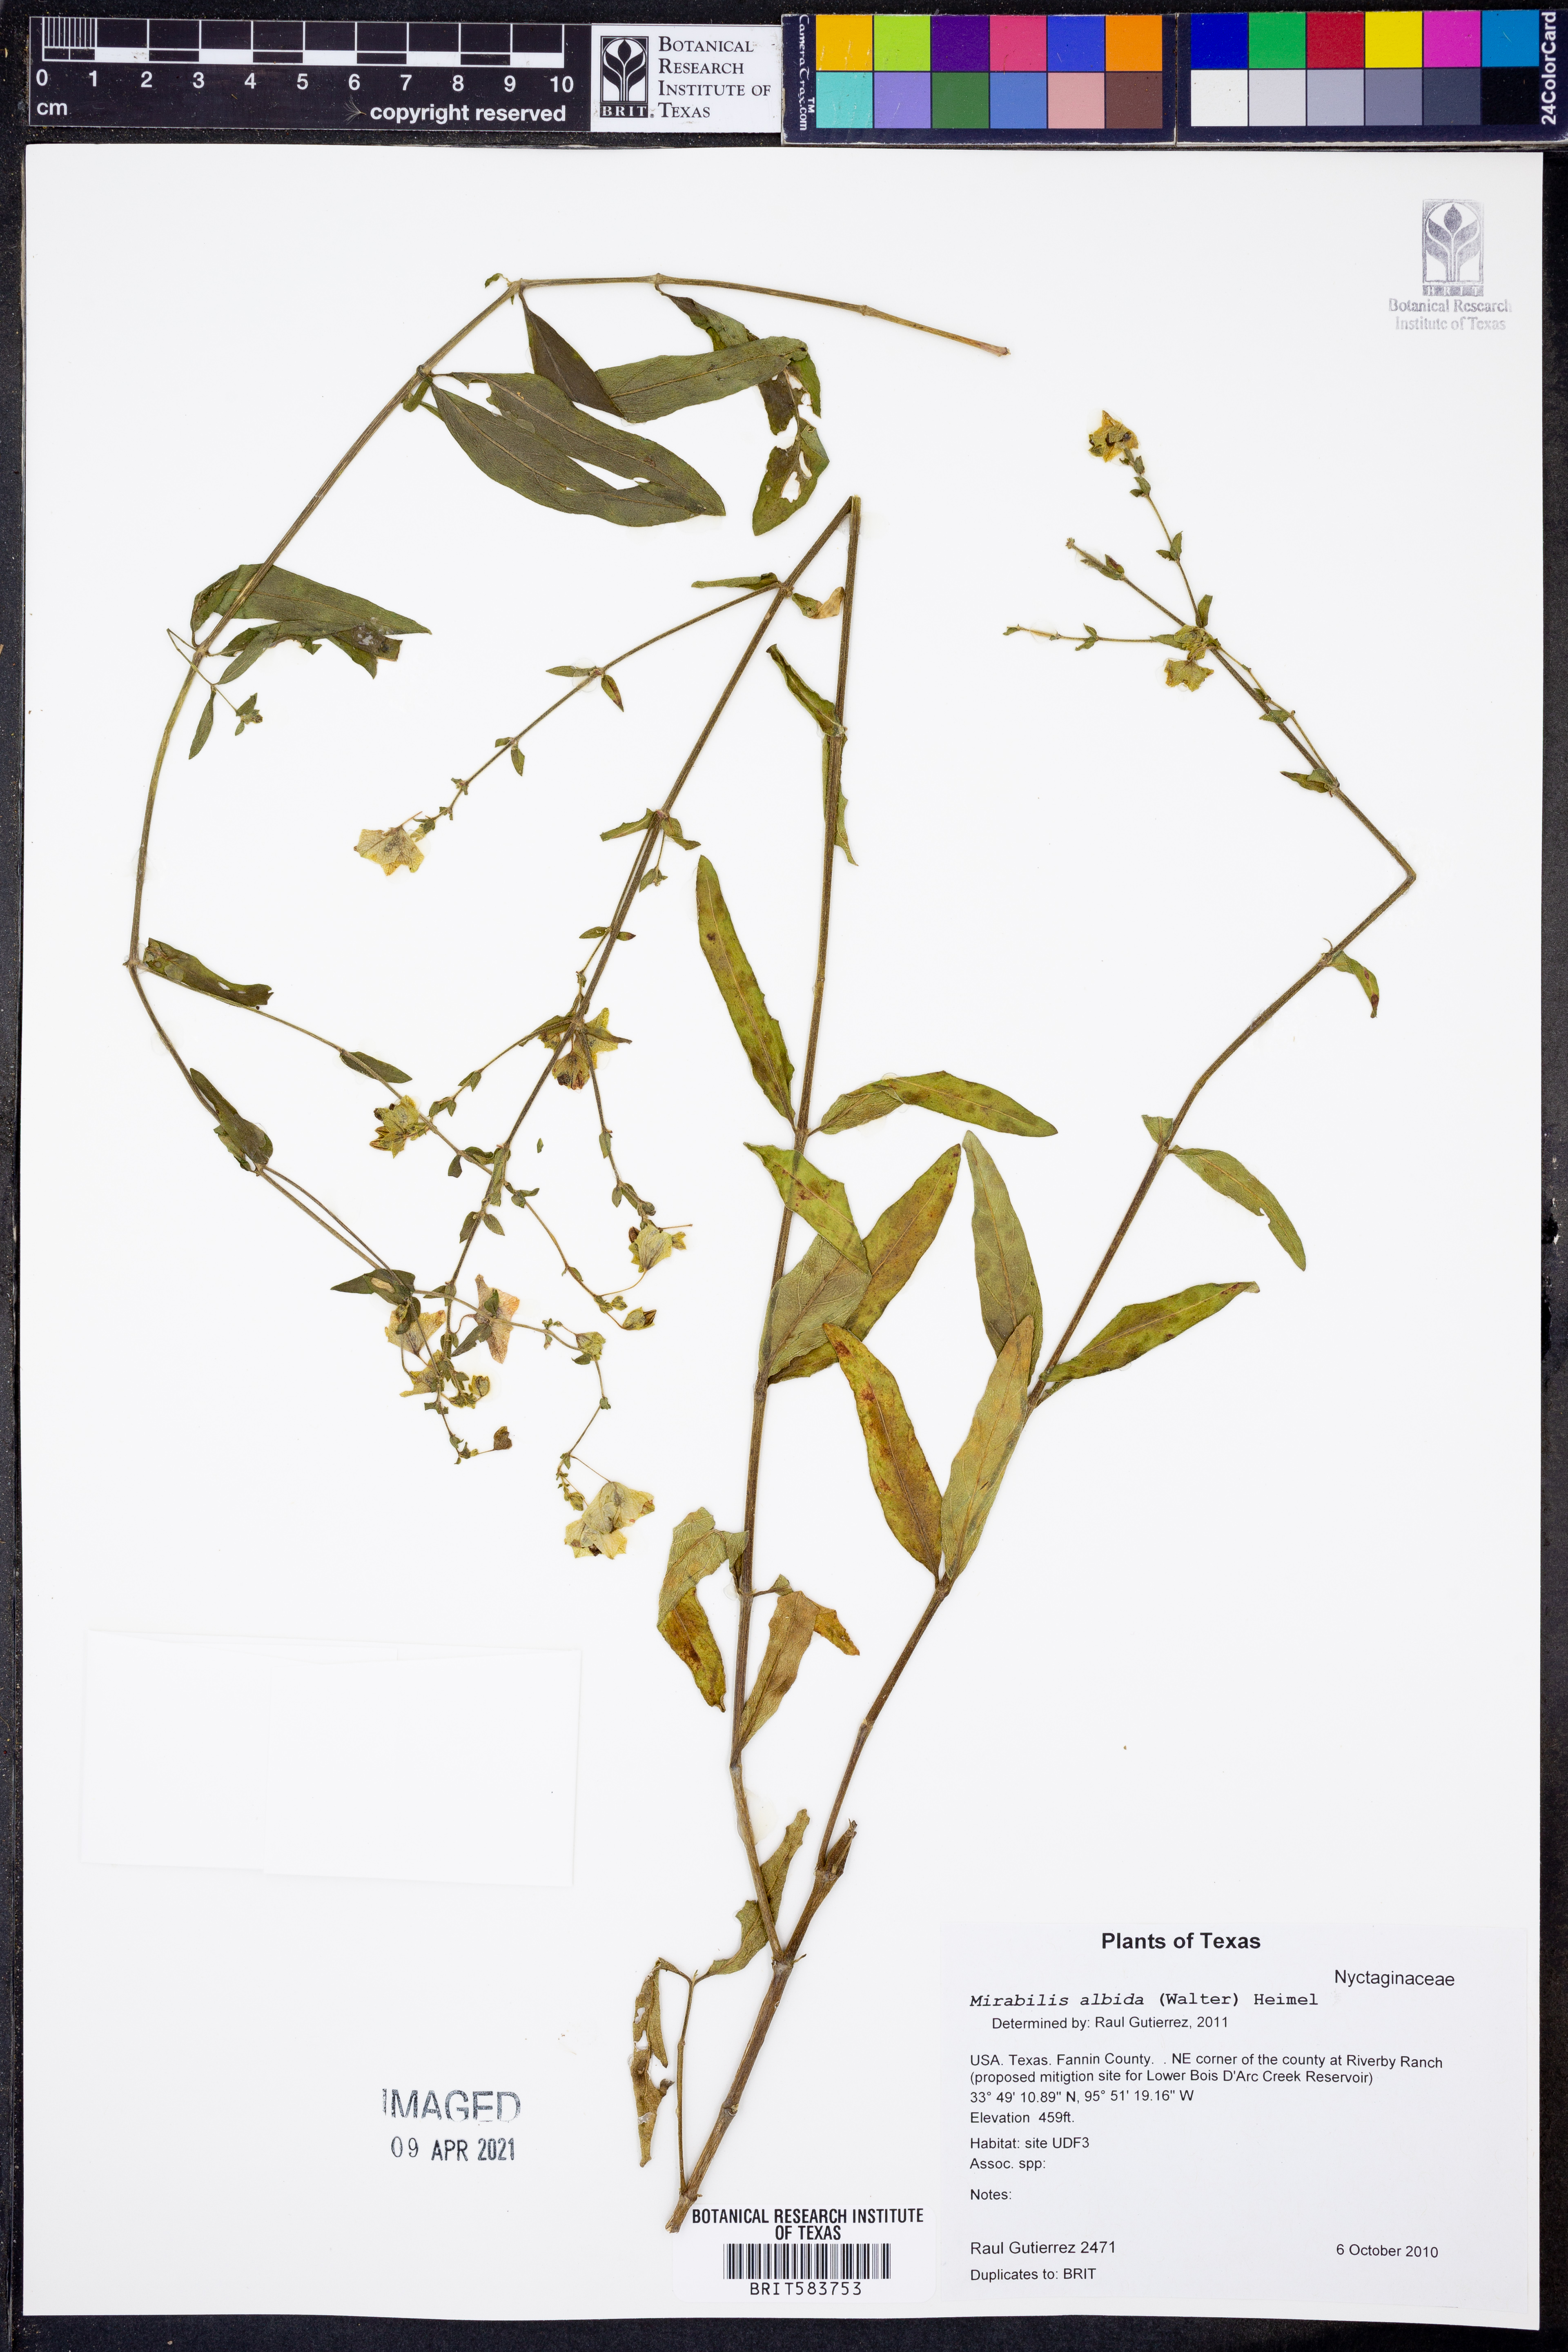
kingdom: Plantae
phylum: Tracheophyta
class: Magnoliopsida
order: Caryophyllales
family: Nyctaginaceae
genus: Mirabilis
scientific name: Mirabilis albida
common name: Hairy four-o'clock
